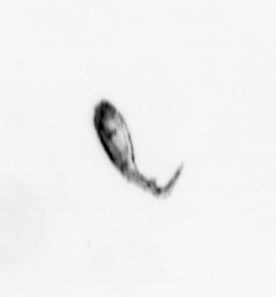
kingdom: Animalia
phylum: Arthropoda
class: Copepoda
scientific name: Copepoda
